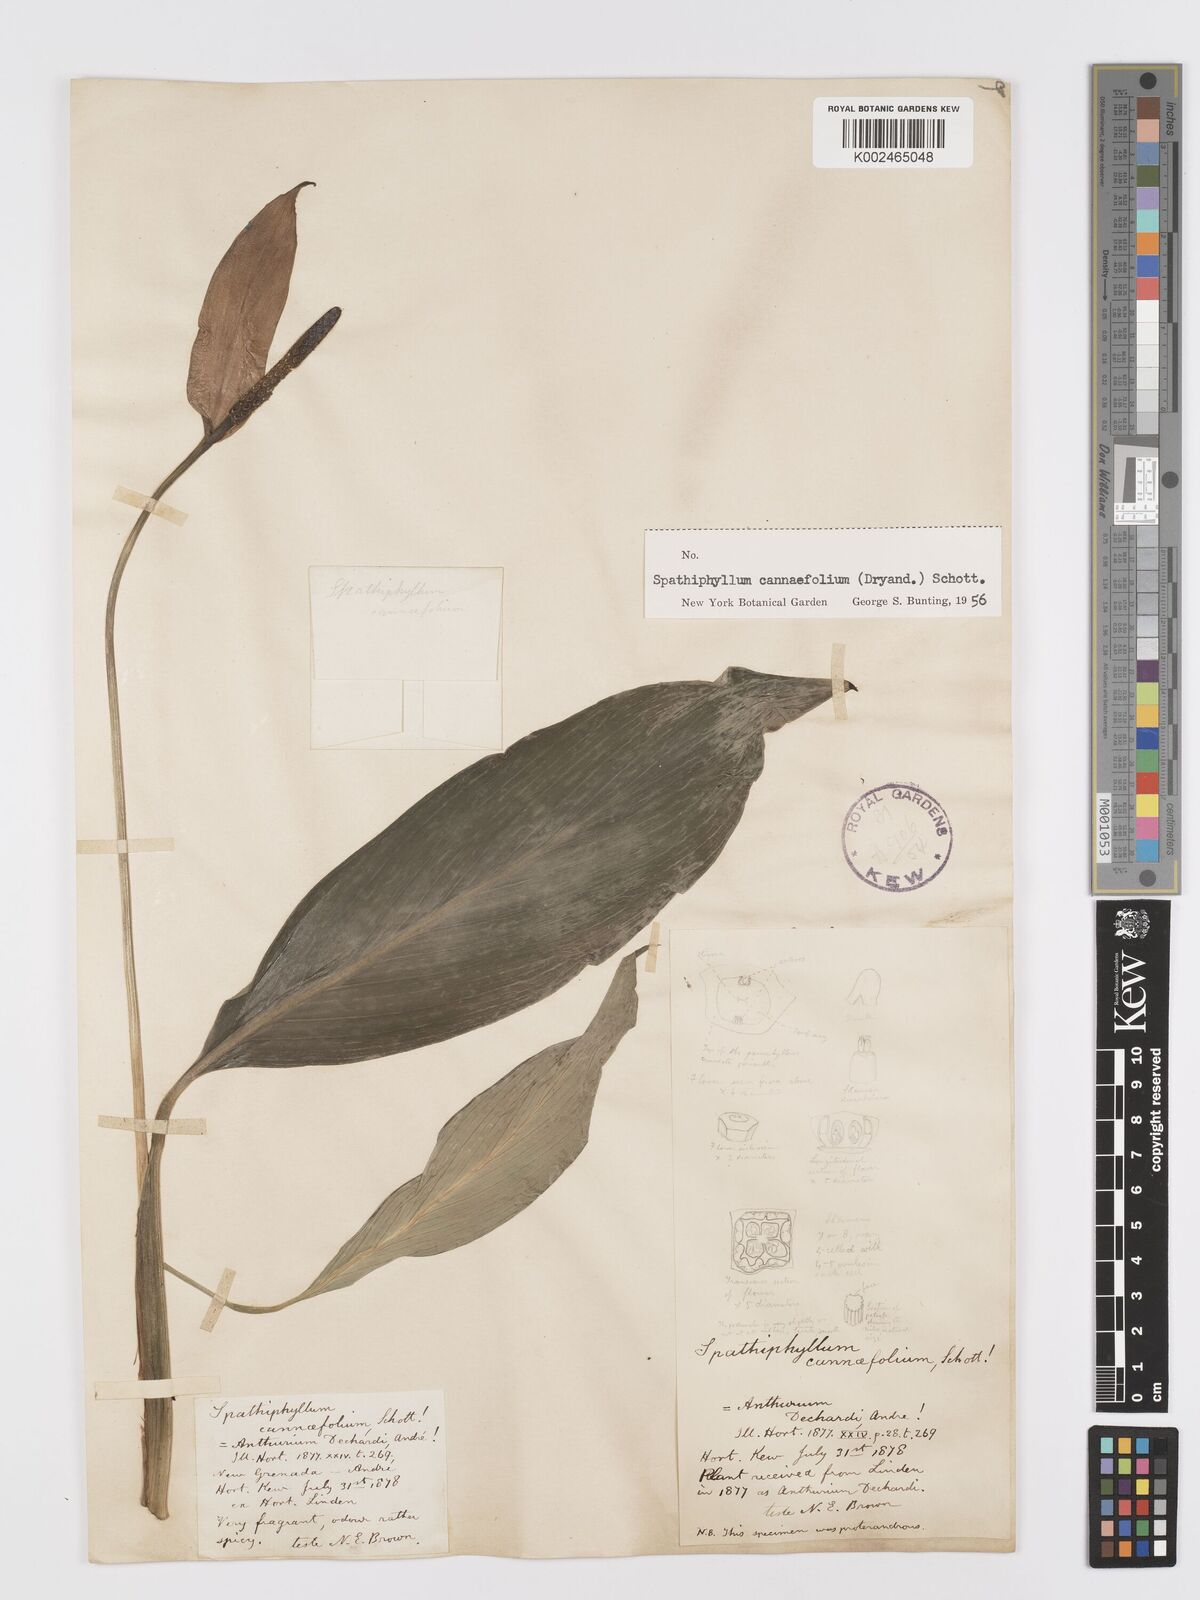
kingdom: Plantae
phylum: Tracheophyta
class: Liliopsida
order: Alismatales
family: Araceae
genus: Spathiphyllum
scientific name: Spathiphyllum cannifolium
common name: Spatheflower
